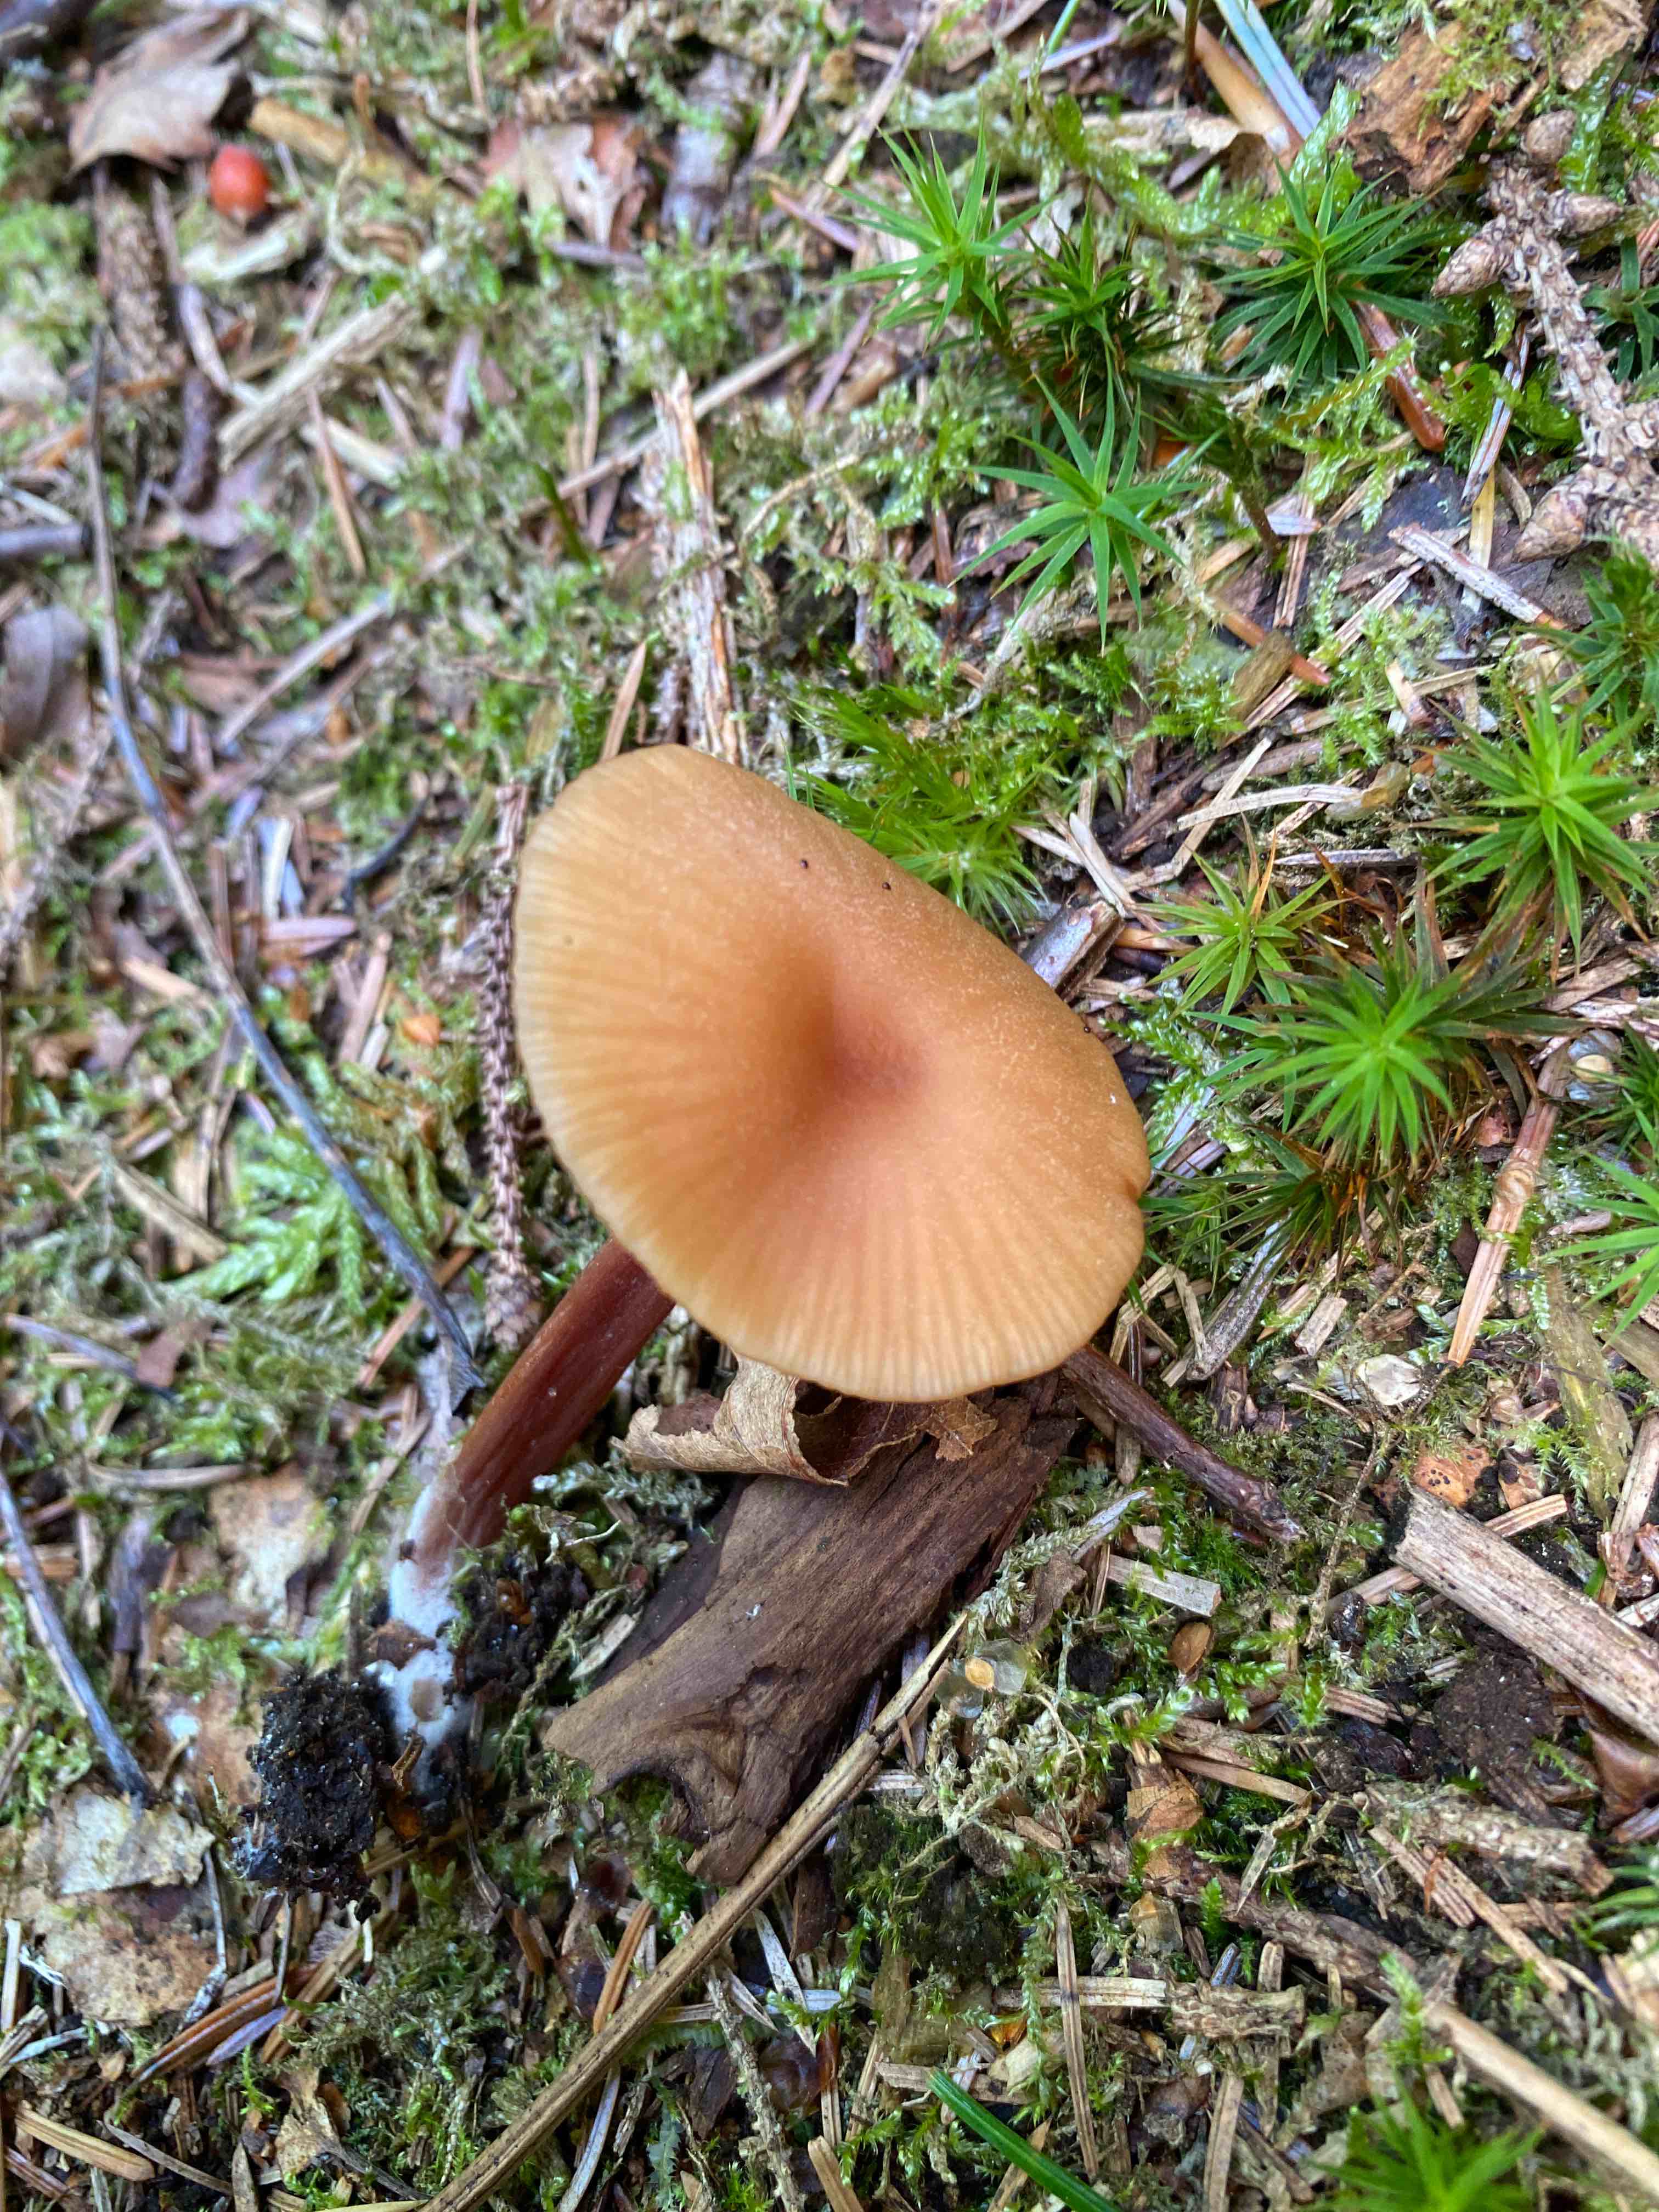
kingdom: Fungi
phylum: Basidiomycota
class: Agaricomycetes
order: Agaricales
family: Hydnangiaceae
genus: Laccaria
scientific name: Laccaria laccata
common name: rød ametysthat
